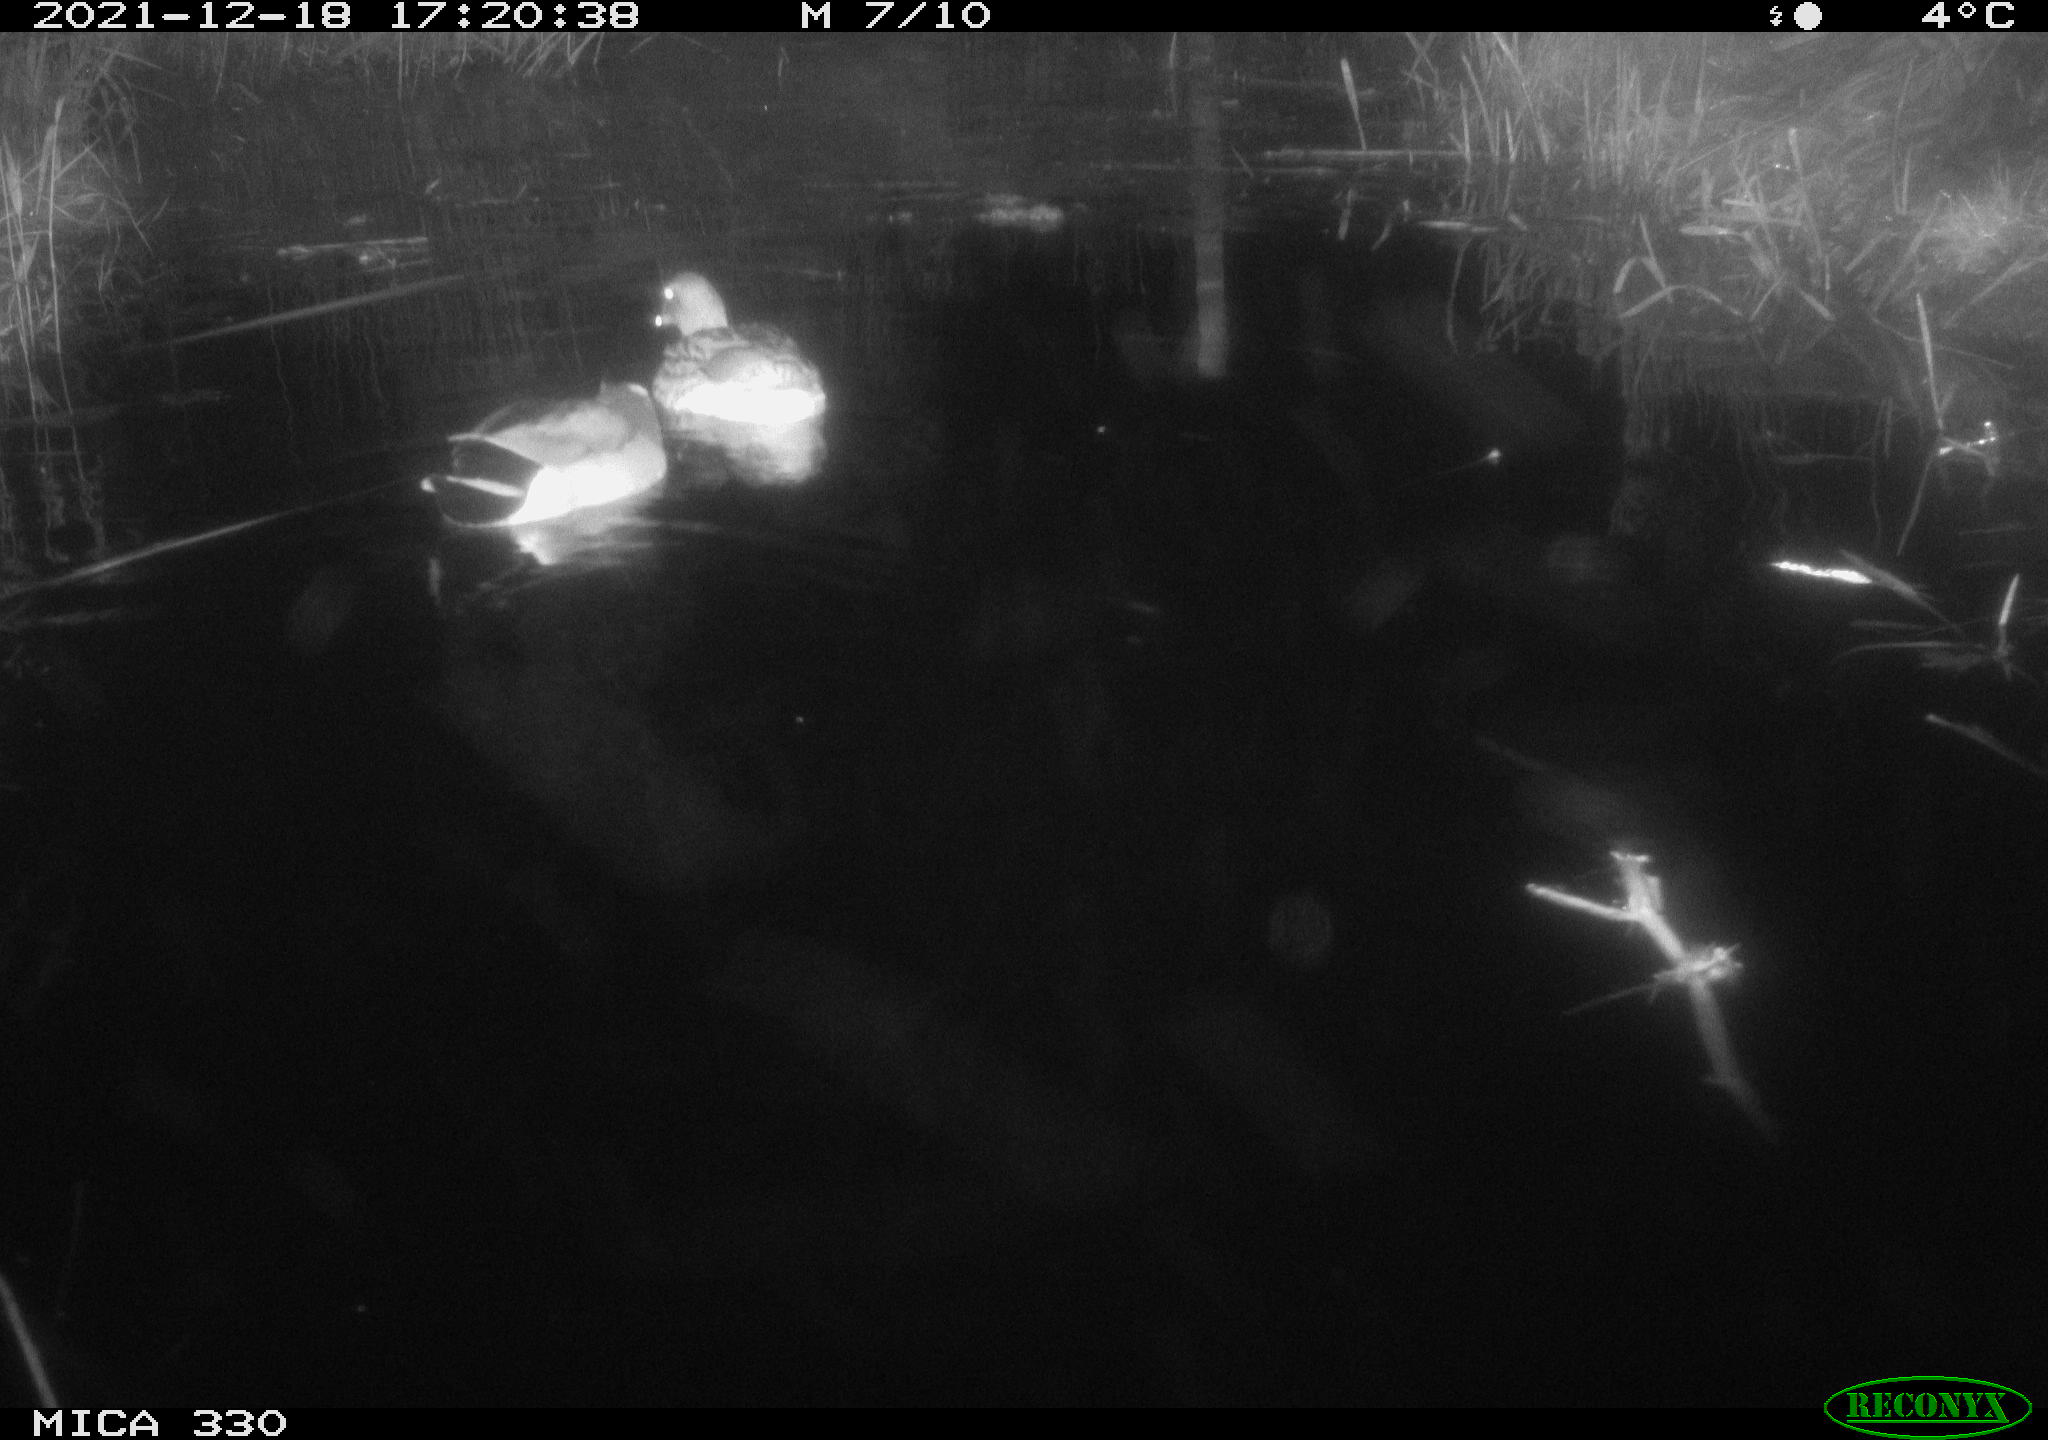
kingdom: Animalia
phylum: Chordata
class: Aves
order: Anseriformes
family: Anatidae
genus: Anas
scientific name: Anas platyrhynchos
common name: Mallard
